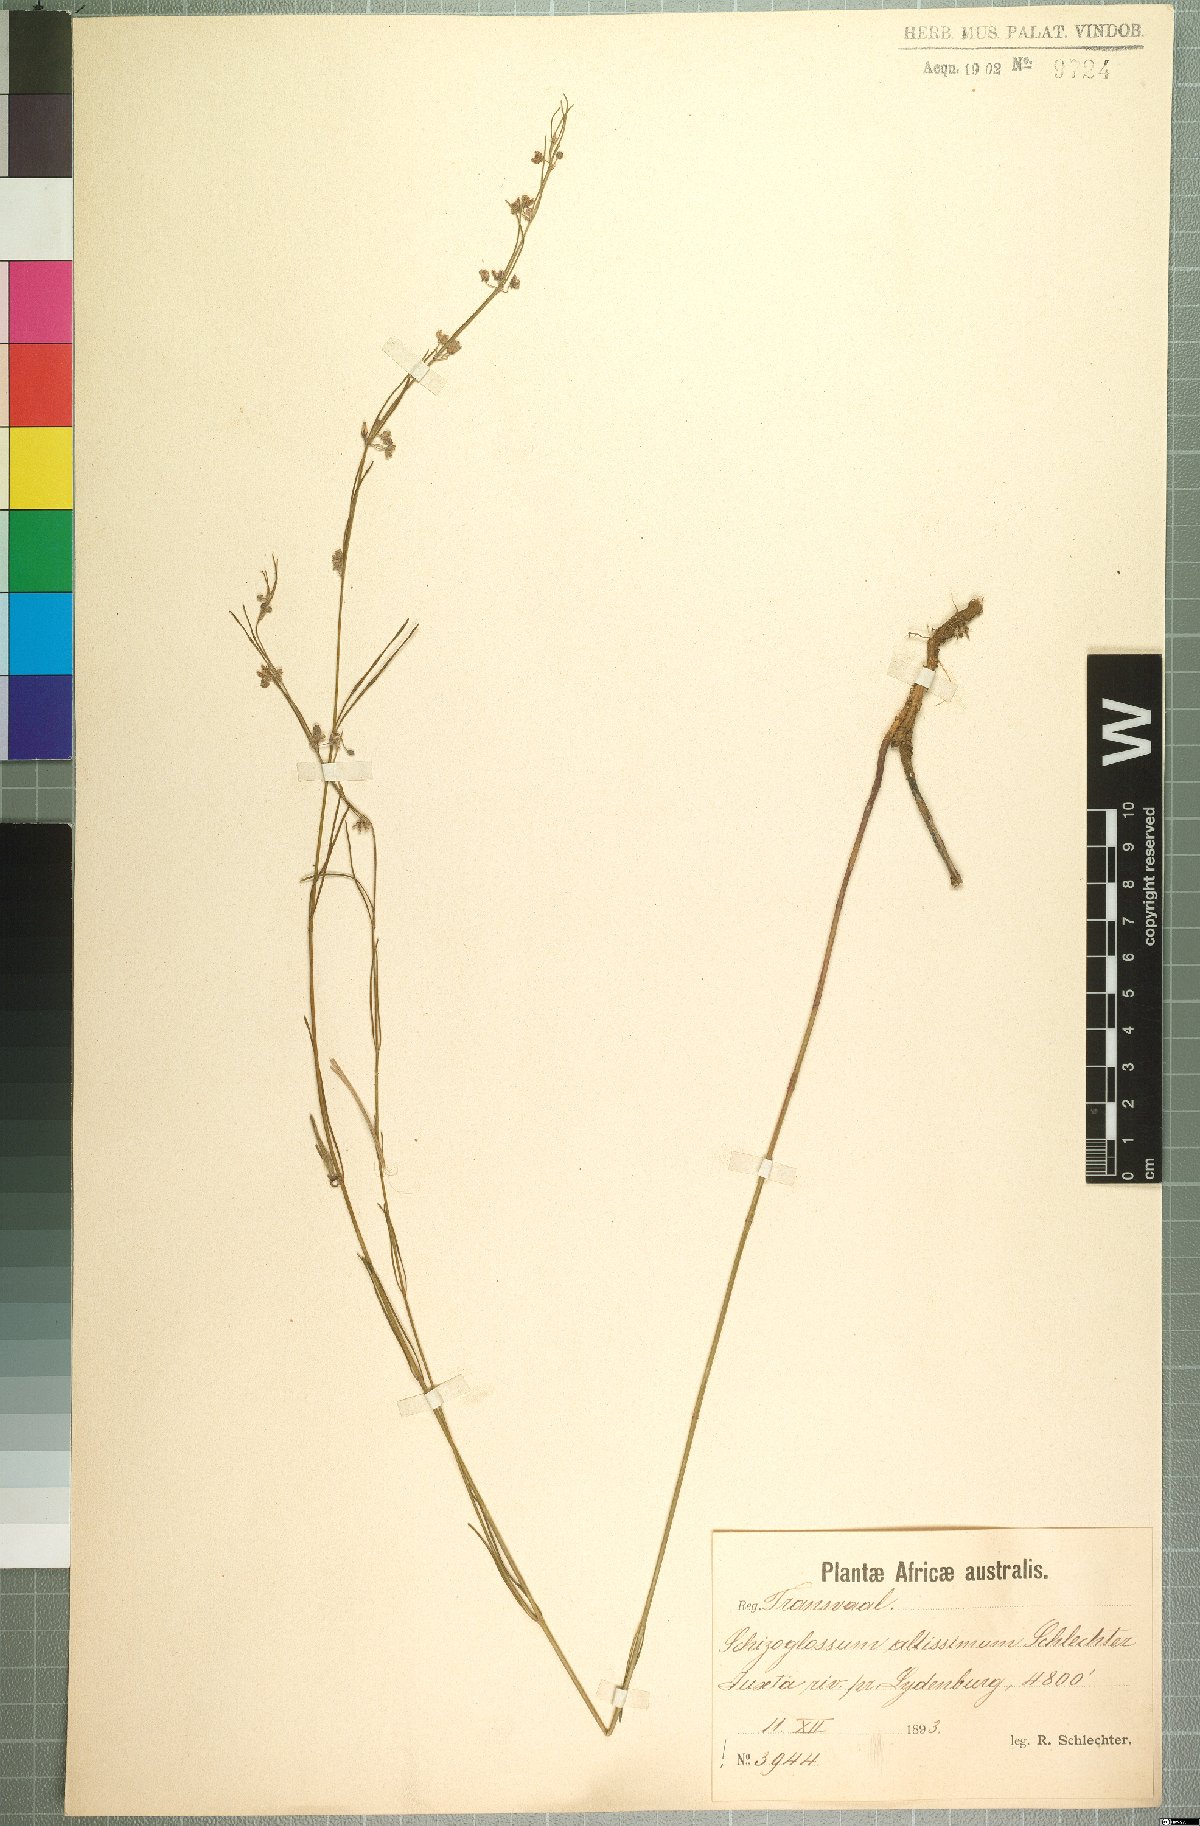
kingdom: Plantae
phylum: Tracheophyta
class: Magnoliopsida
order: Gentianales
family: Apocynaceae
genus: Aspidoglossum
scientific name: Aspidoglossum interruptum
